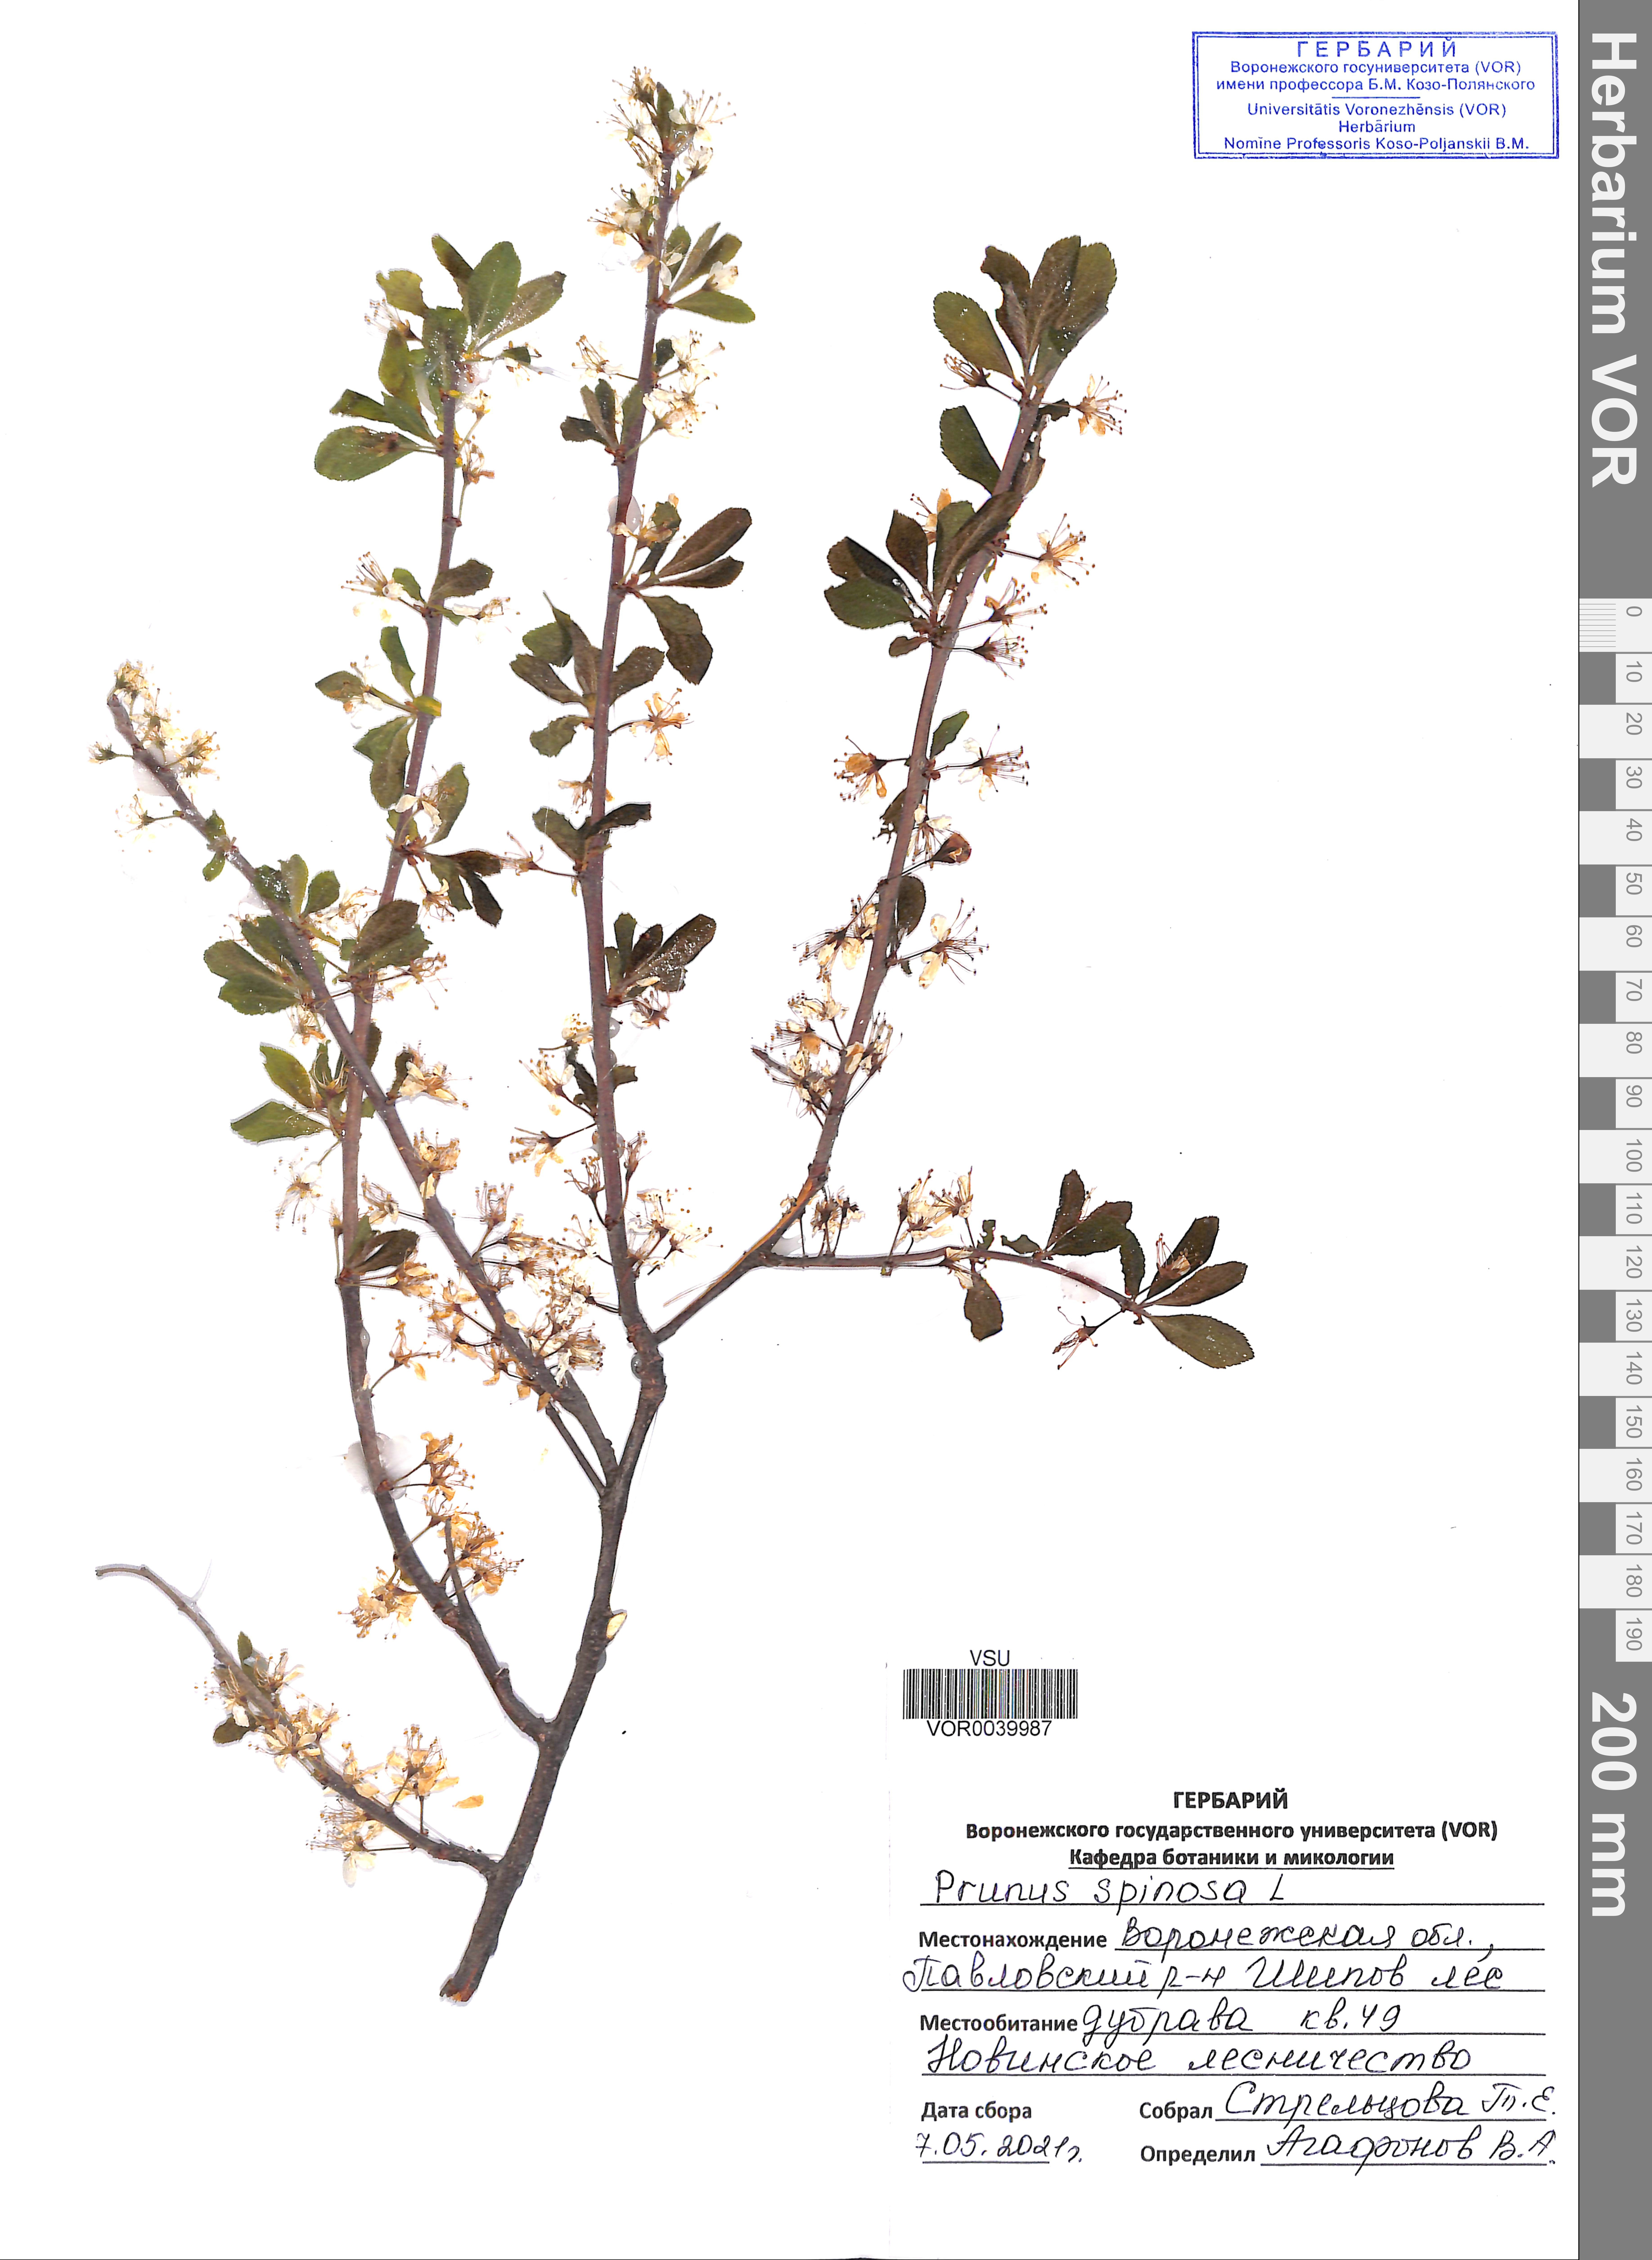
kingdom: Plantae
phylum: Tracheophyta
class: Magnoliopsida
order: Rosales
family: Rosaceae
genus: Prunus
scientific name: Prunus spinosa
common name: Blackthorn
